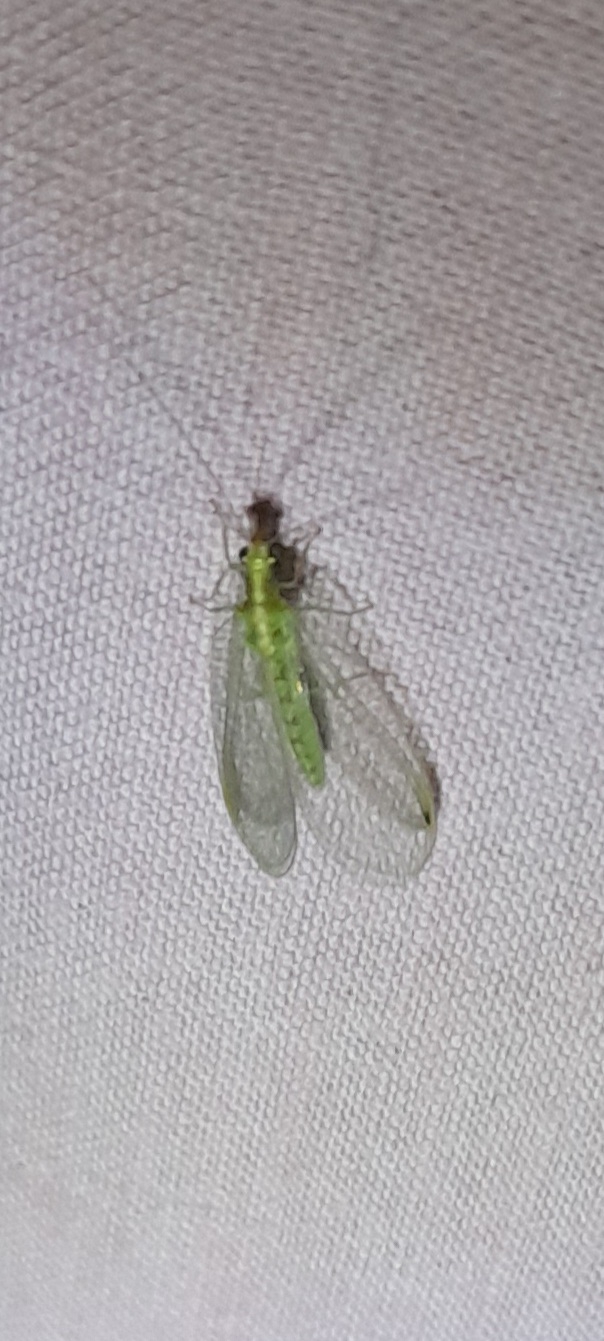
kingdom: Animalia
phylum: Arthropoda
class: Insecta
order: Neuroptera
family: Chrysopidae
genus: Chrysoperla
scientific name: Chrysoperla carnea
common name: Almindelig guldøje
